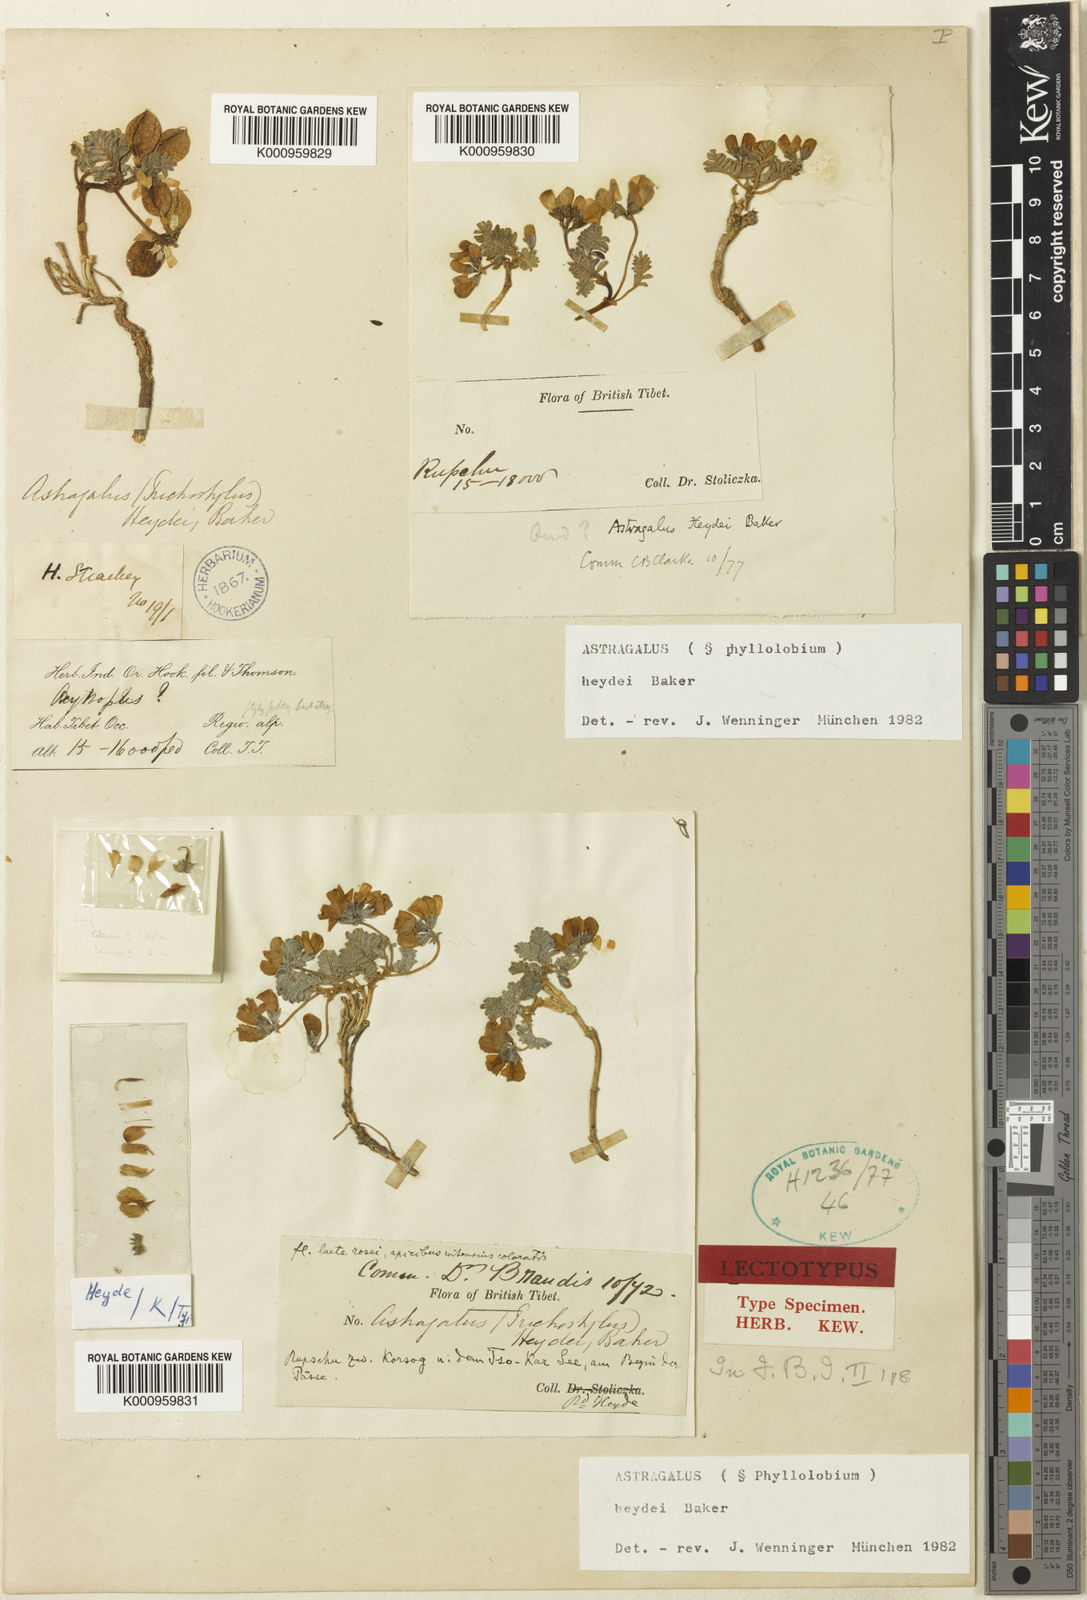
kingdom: Plantae
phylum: Tracheophyta
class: Magnoliopsida
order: Fabales
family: Fabaceae
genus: Astragalus
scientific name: Astragalus
